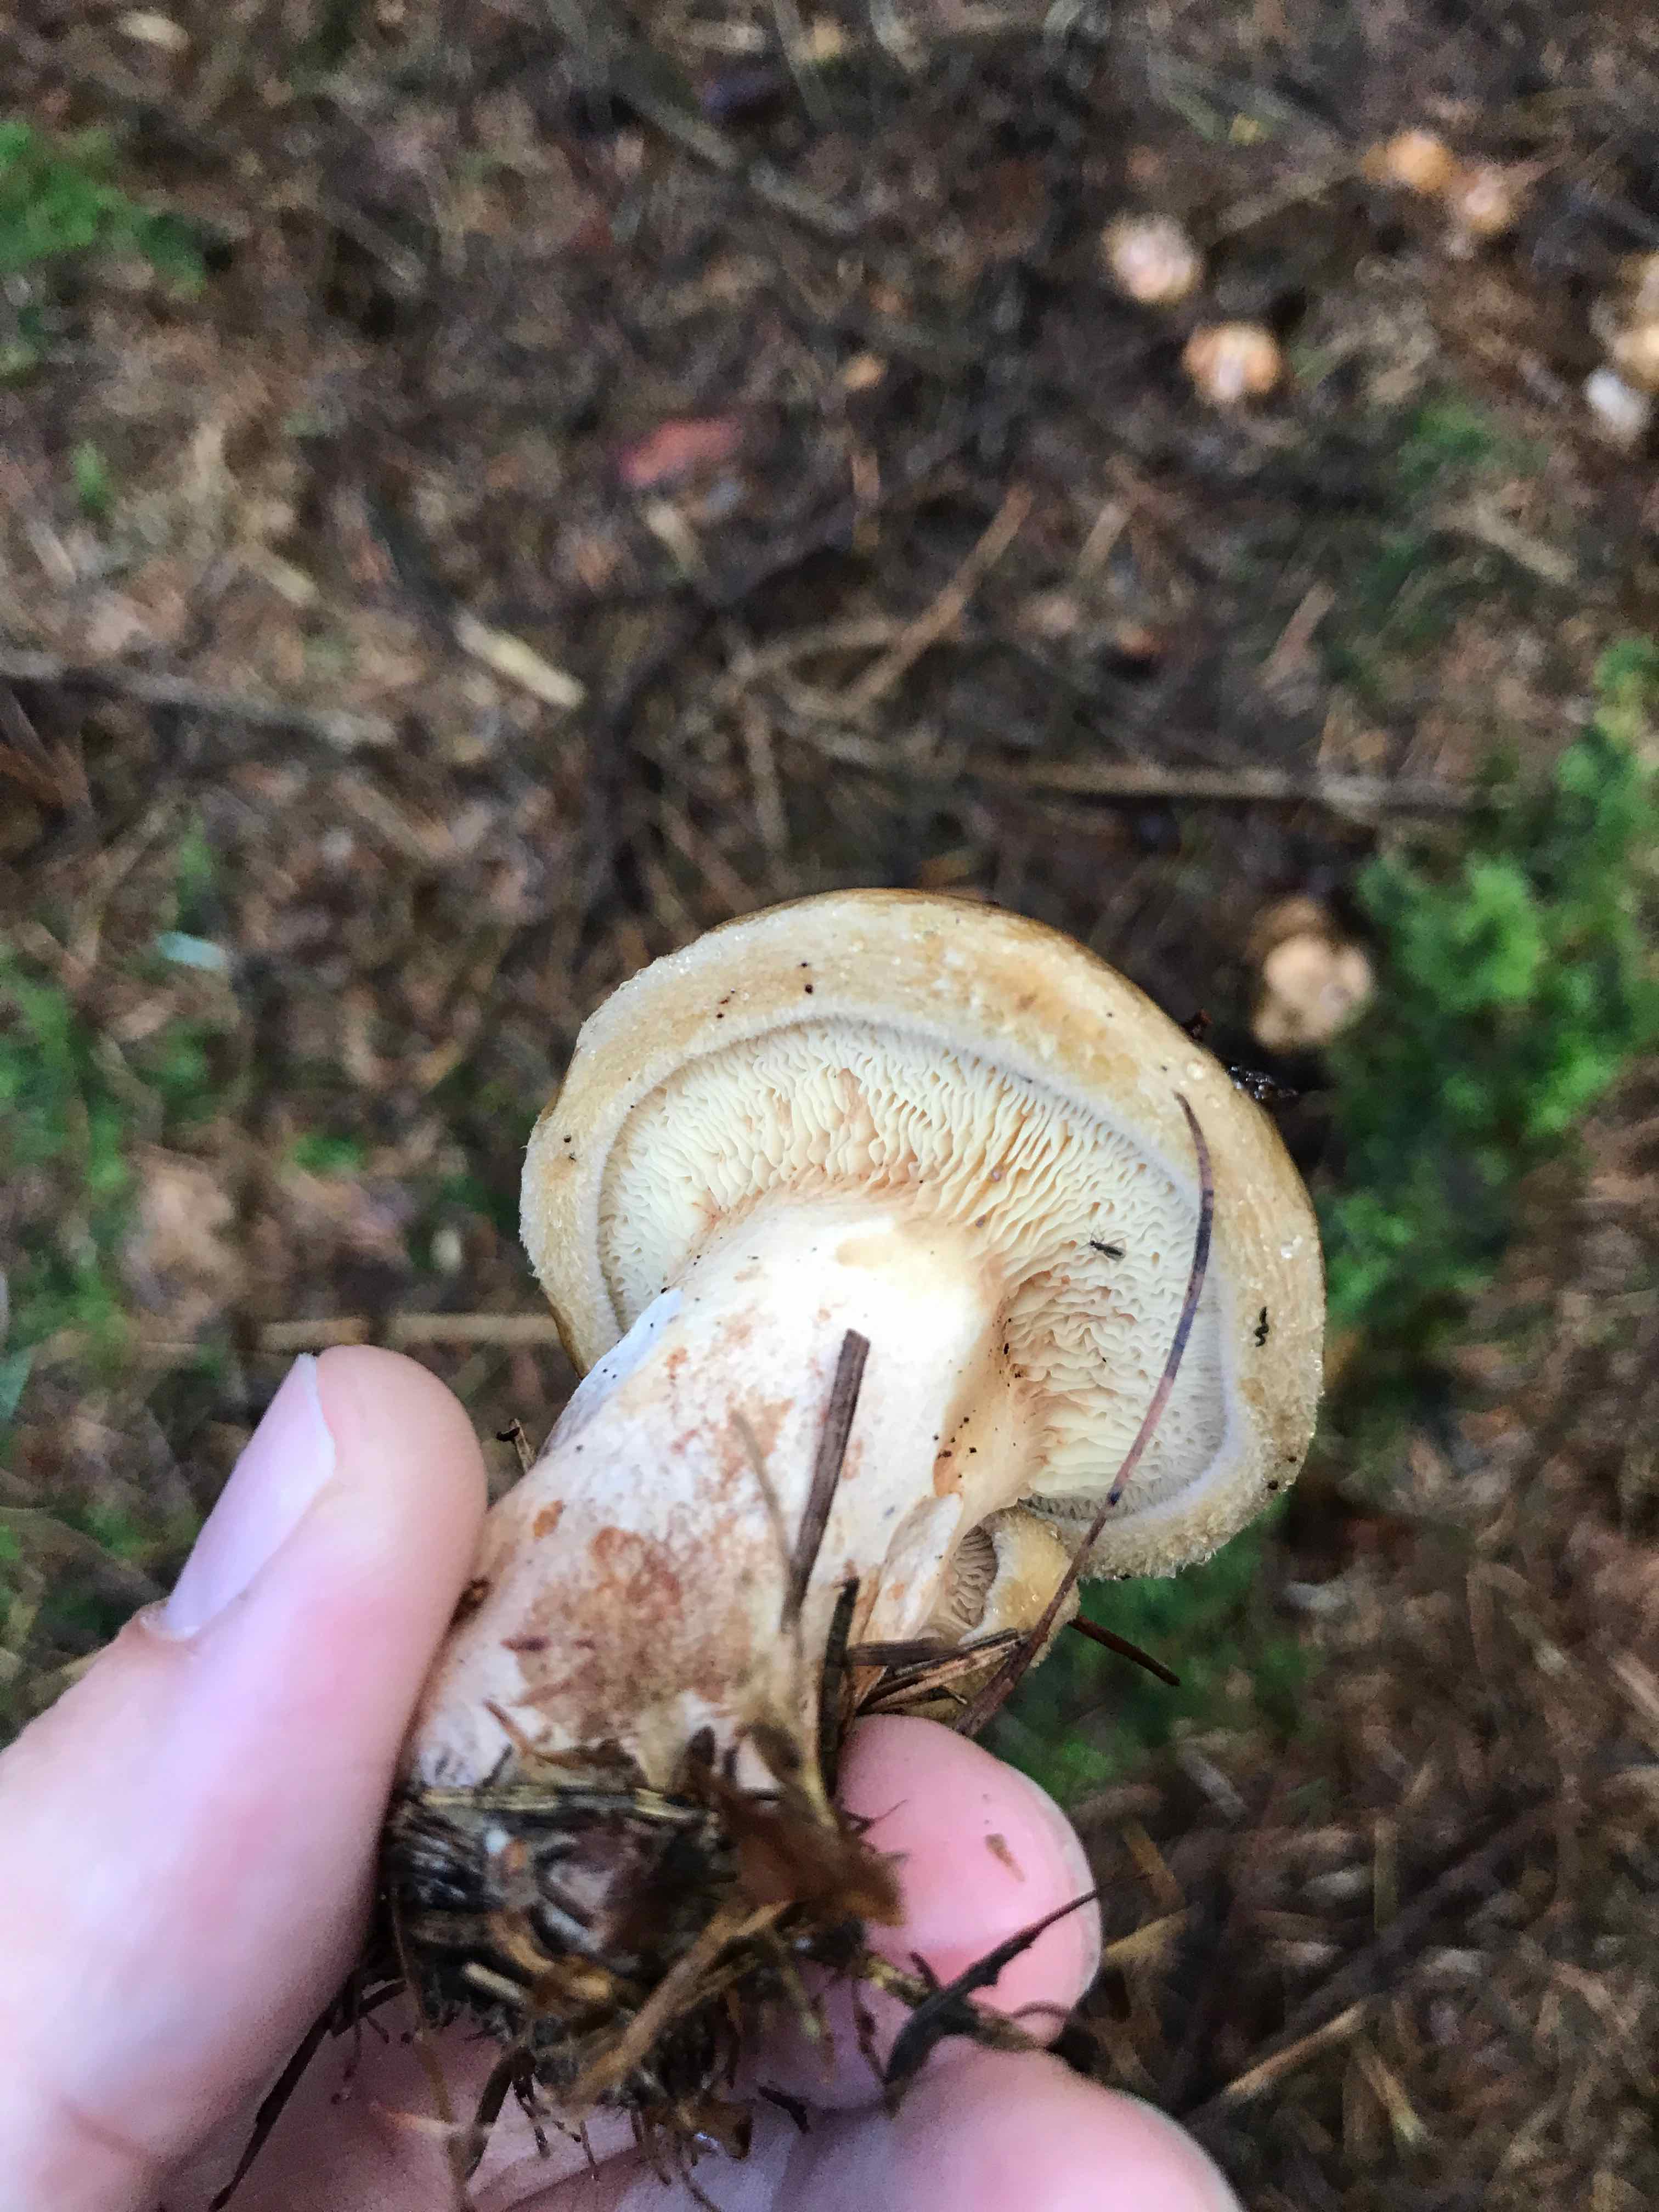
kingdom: Fungi
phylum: Basidiomycota
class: Agaricomycetes
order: Boletales
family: Paxillaceae
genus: Paxillus
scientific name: Paxillus involutus
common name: almindelig netbladhat
